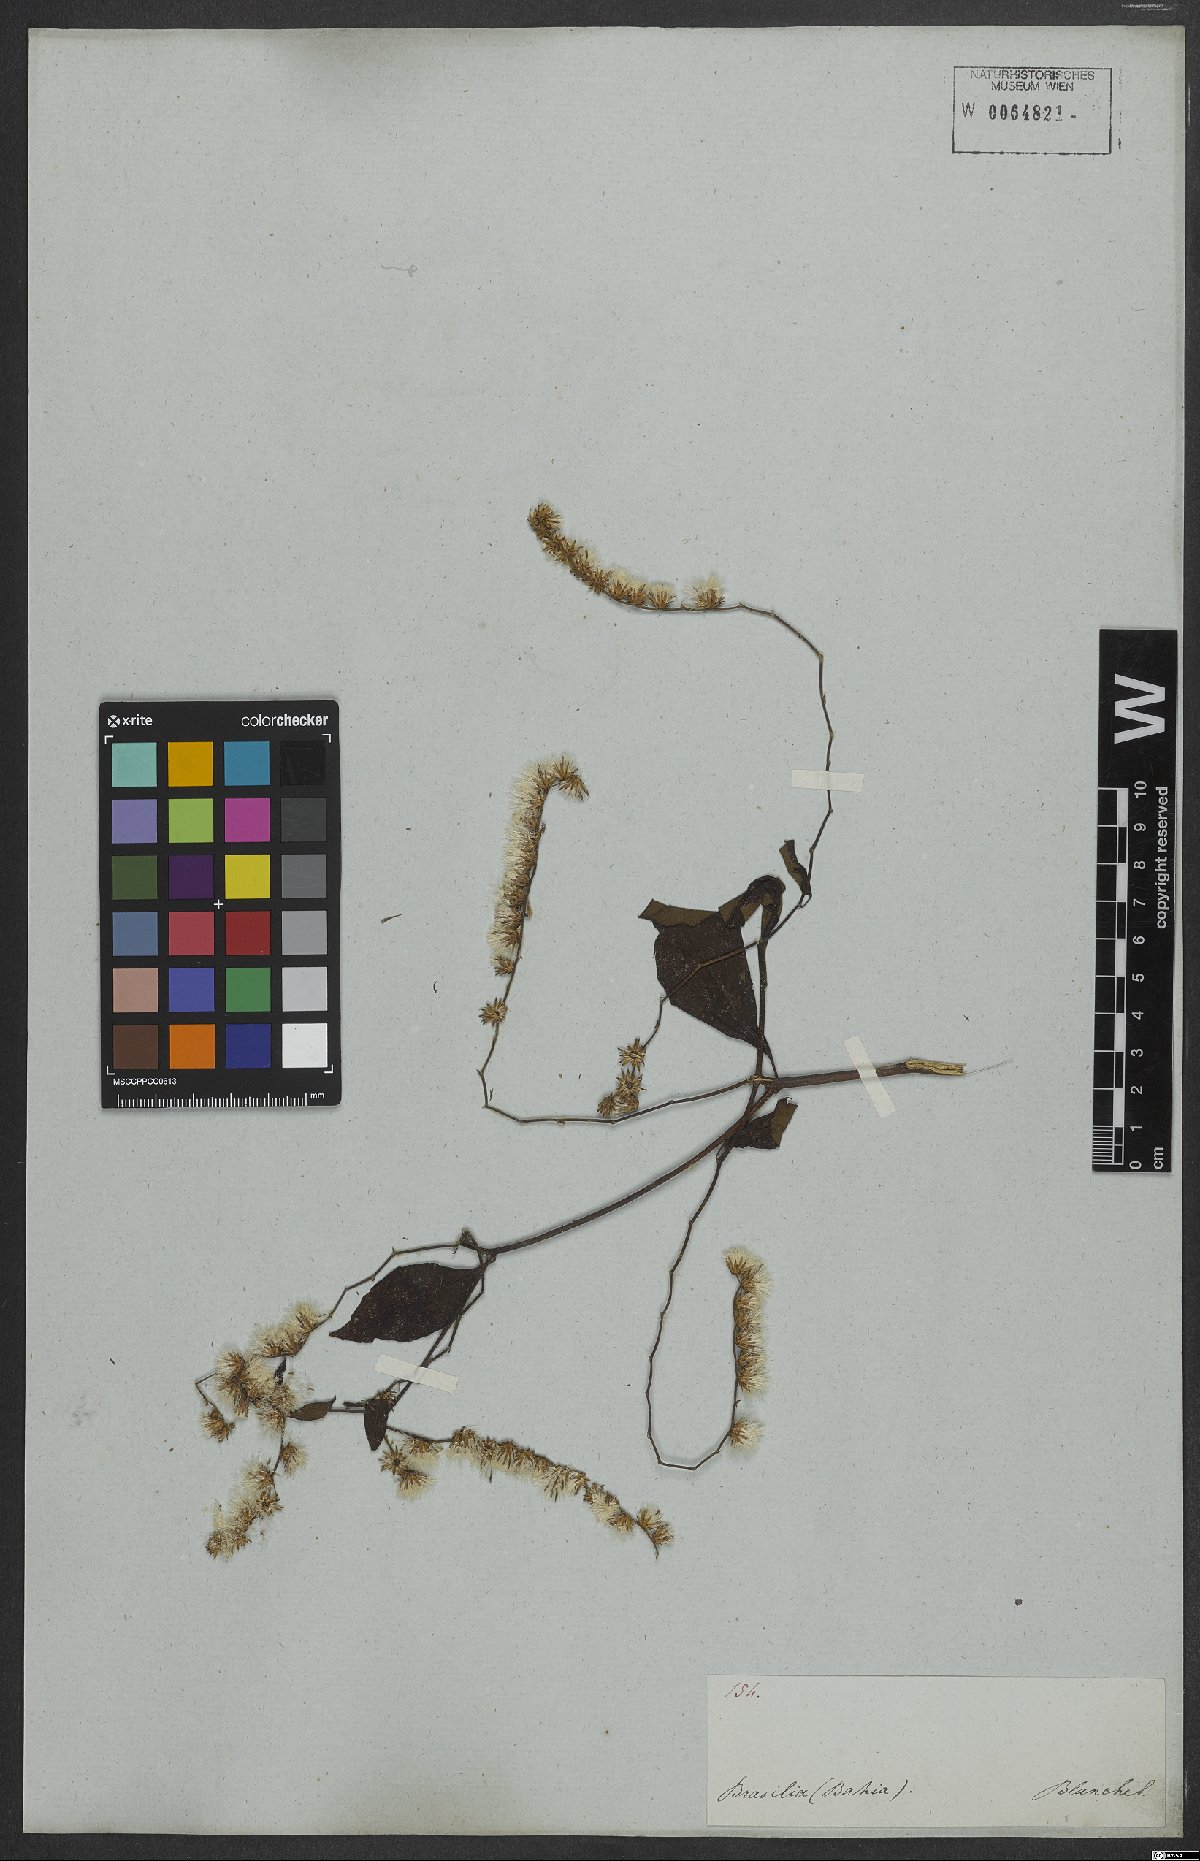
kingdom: Plantae
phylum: Tracheophyta
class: Magnoliopsida
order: Asterales
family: Asteraceae
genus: Cyrtocymura
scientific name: Cyrtocymura scorpioides
